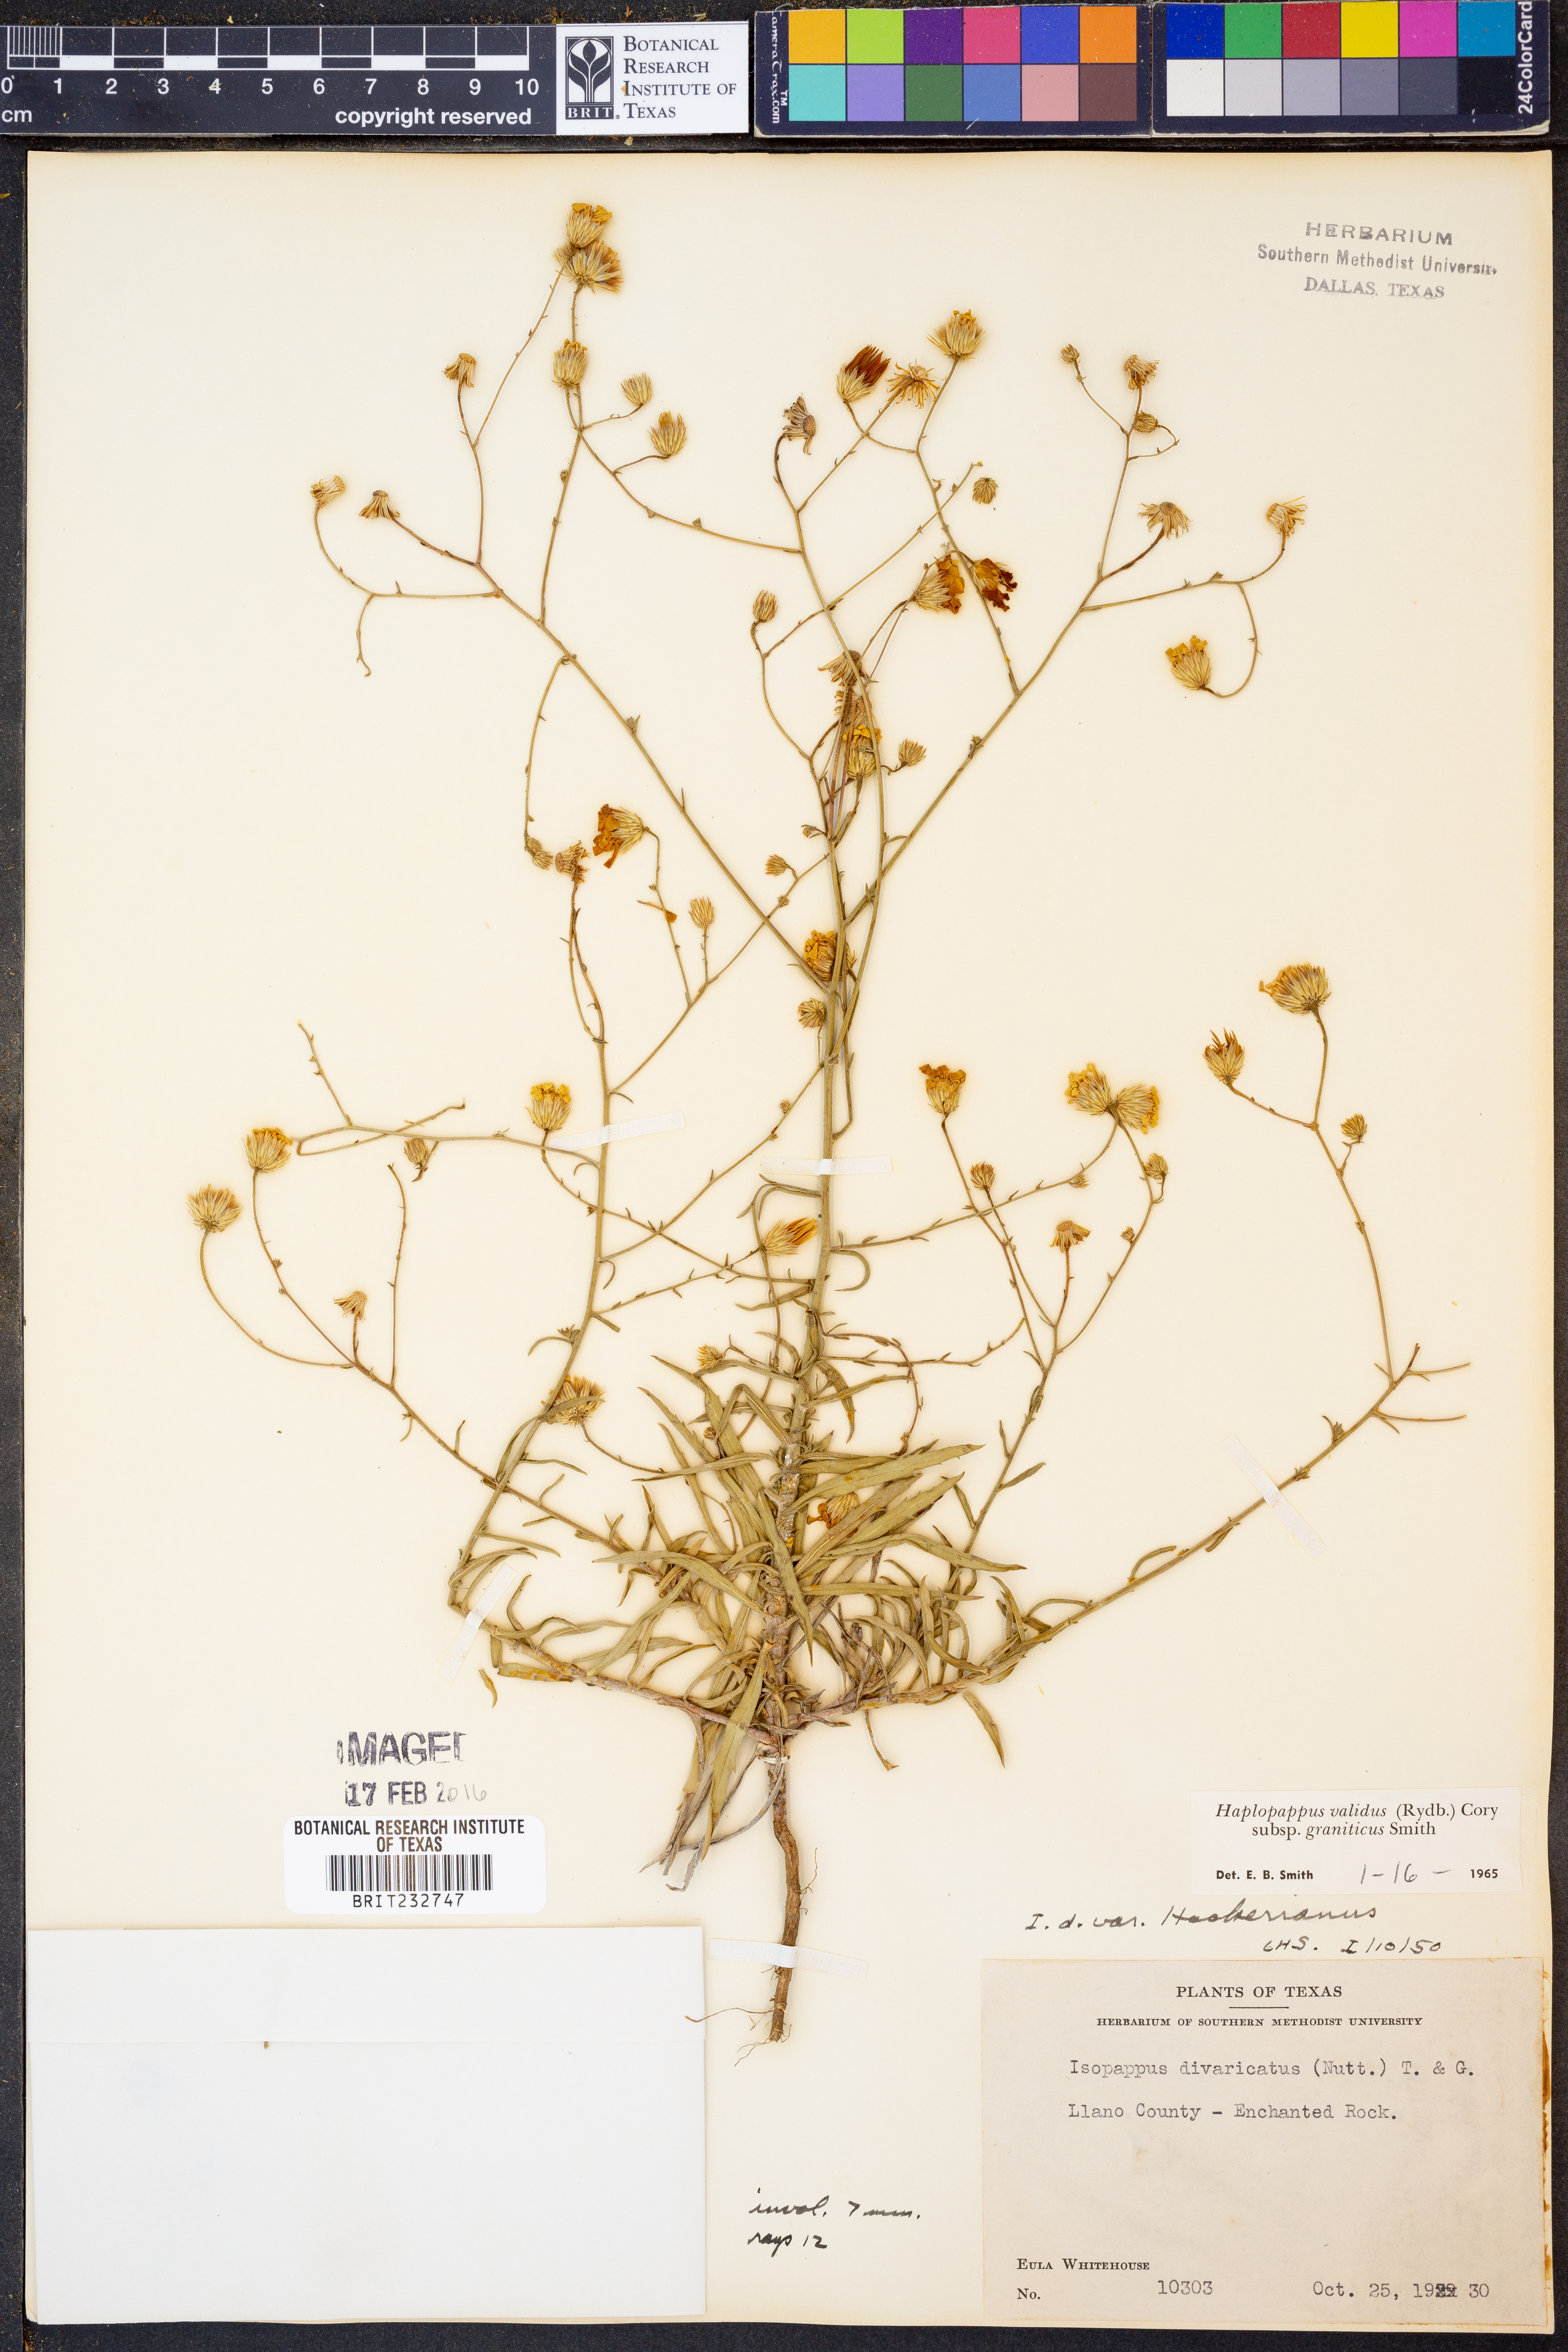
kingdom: Plantae
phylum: Tracheophyta
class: Magnoliopsida
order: Asterales
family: Asteraceae
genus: Croptilon
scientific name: Croptilon hookerianum
